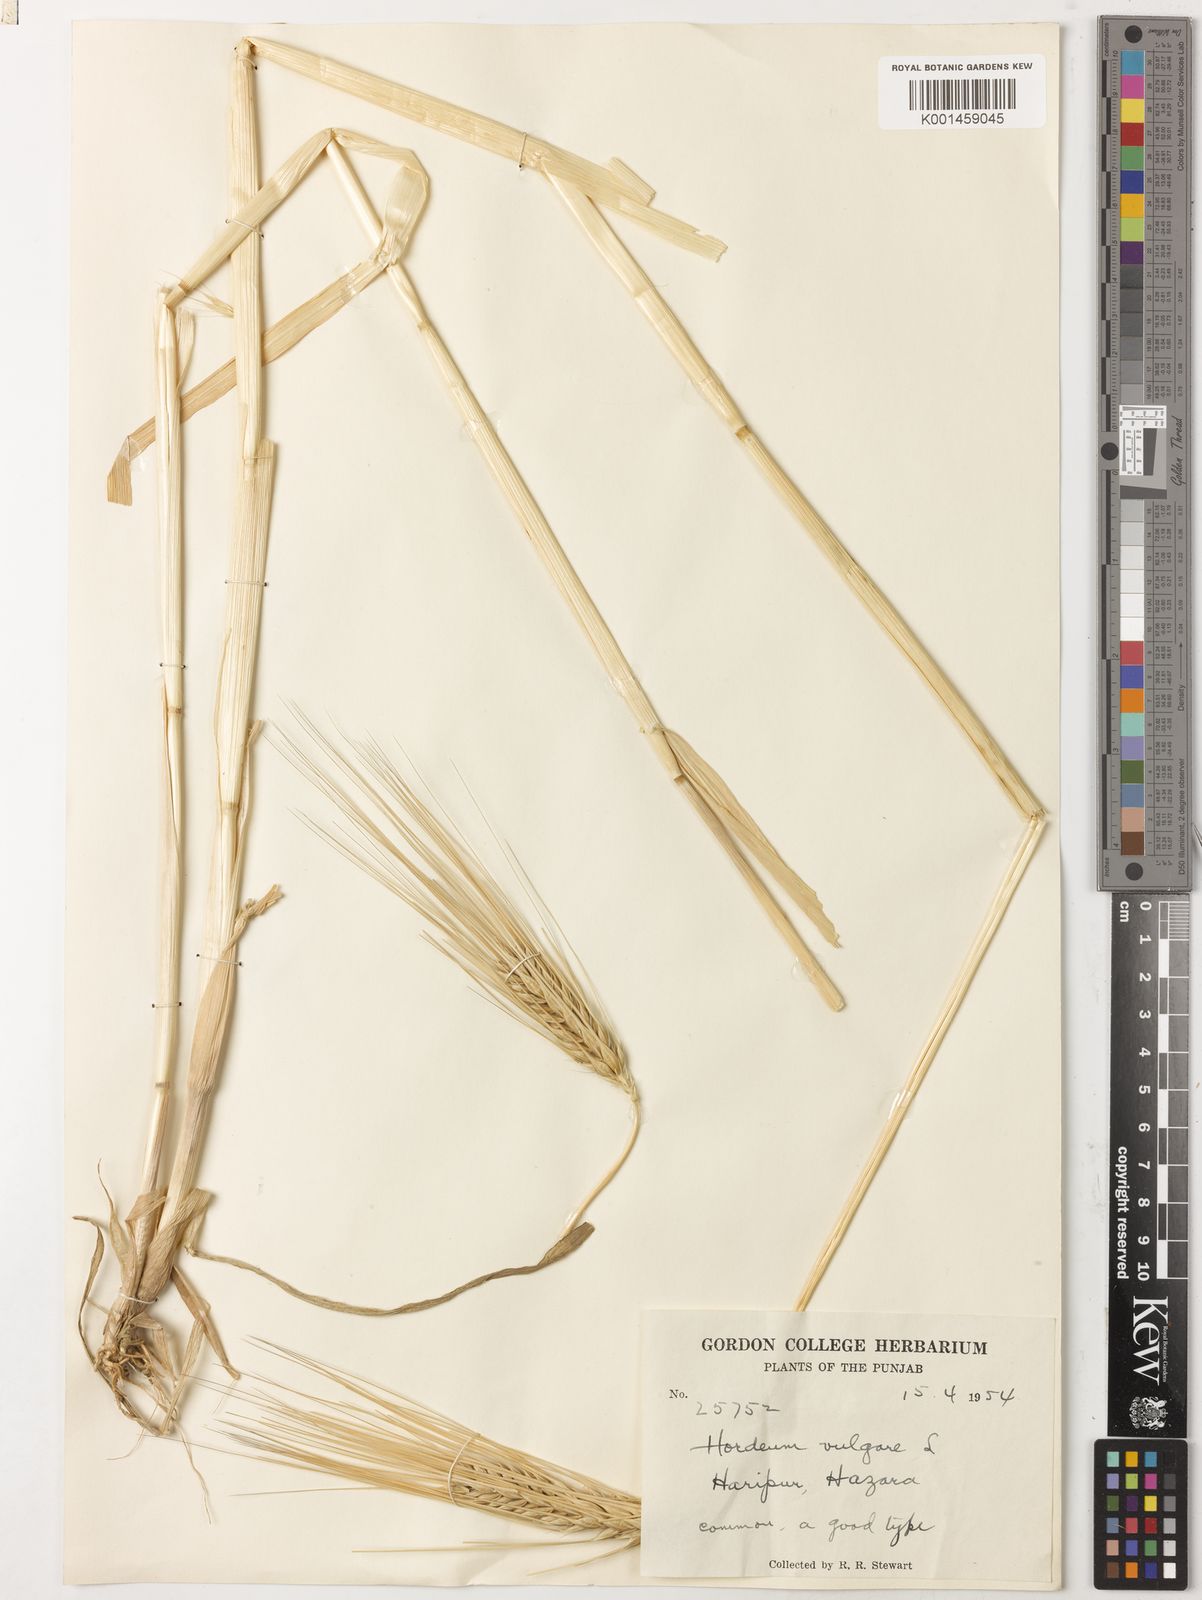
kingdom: Plantae
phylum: Tracheophyta
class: Liliopsida
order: Poales
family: Poaceae
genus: Hordeum
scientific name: Hordeum vulgare
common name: Common barley
